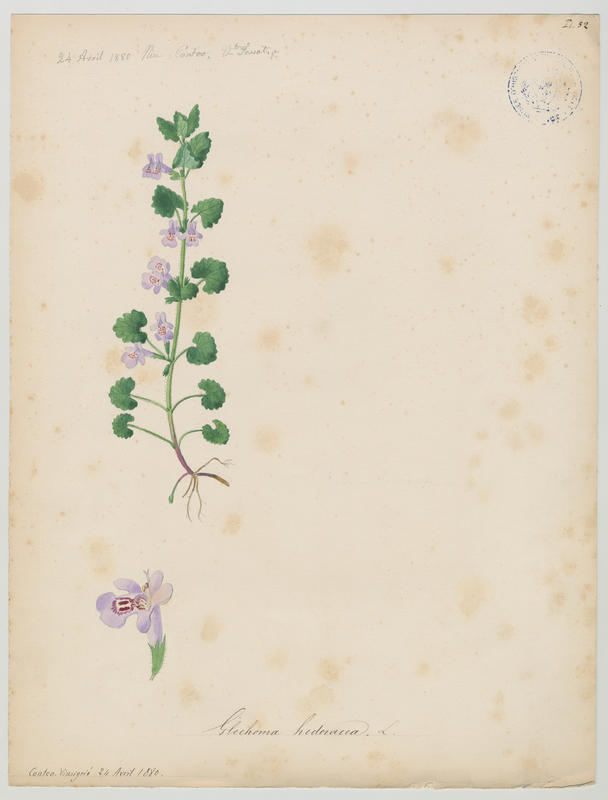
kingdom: Plantae
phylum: Tracheophyta
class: Magnoliopsida
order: Lamiales
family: Lamiaceae
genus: Glechoma
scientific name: Glechoma hederacea
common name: Ground ivy
